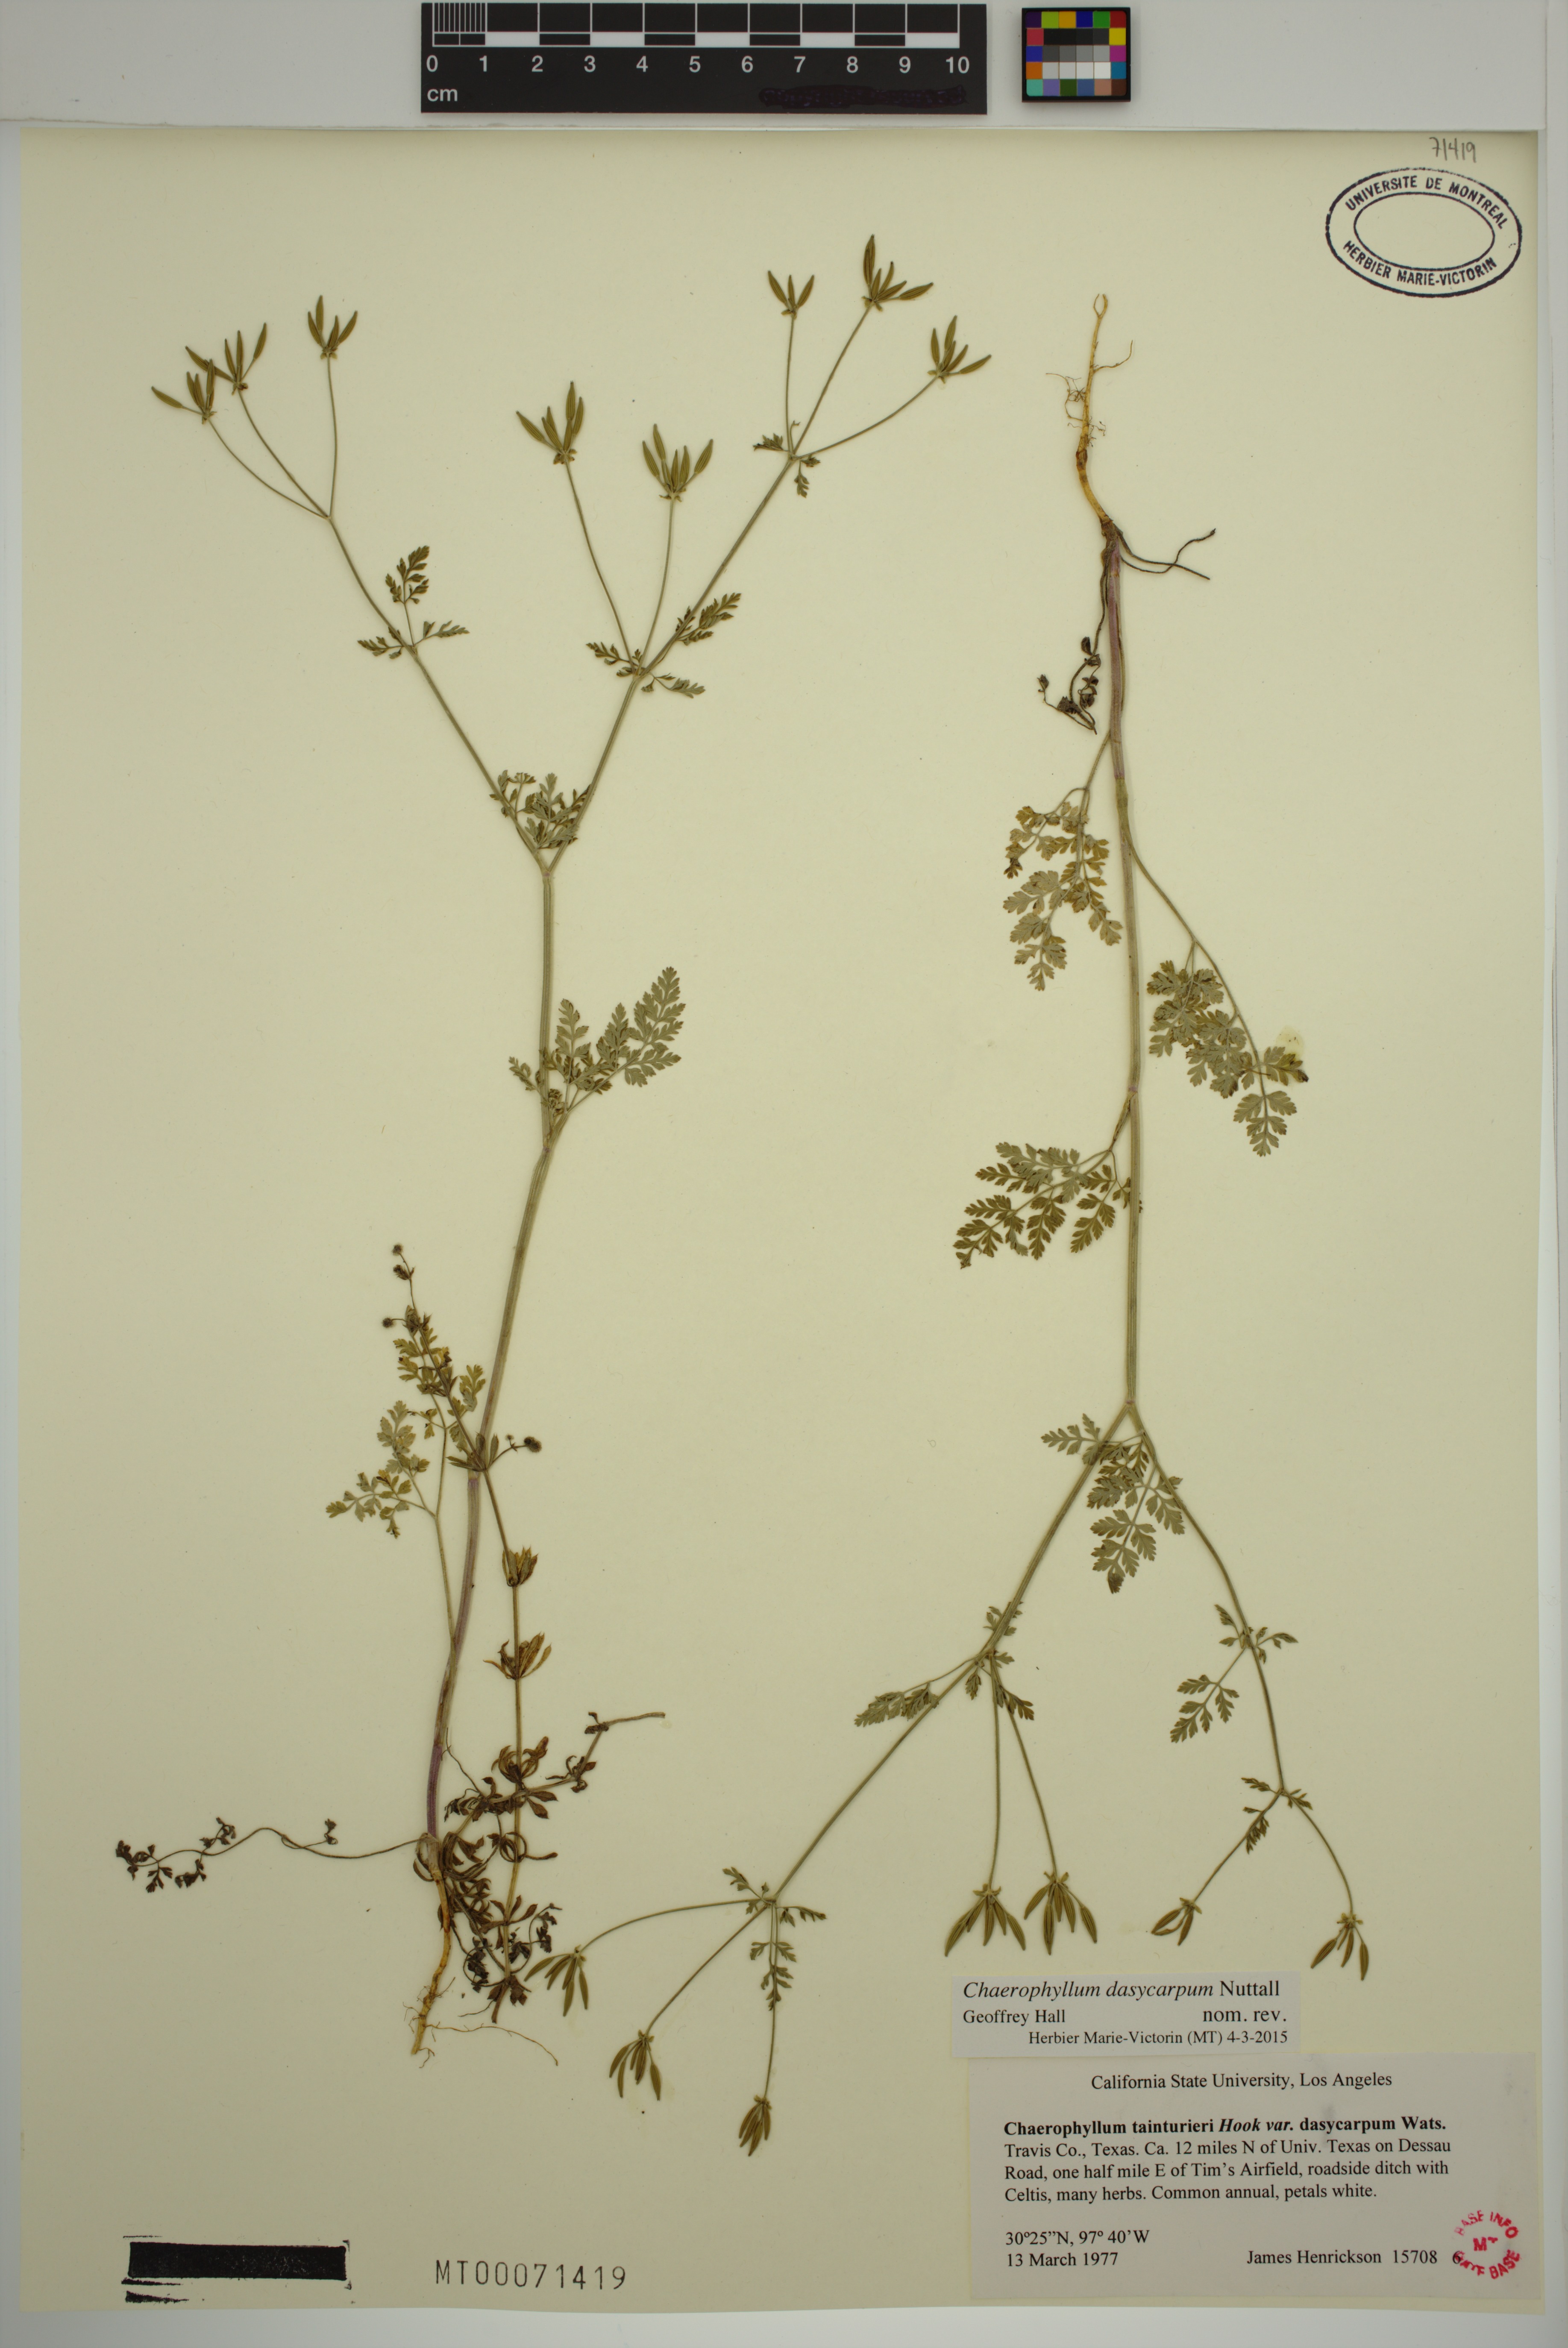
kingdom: Plantae
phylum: Tracheophyta
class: Magnoliopsida
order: Apiales
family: Apiaceae
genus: Chaerophyllum
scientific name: Chaerophyllum tainturieri
